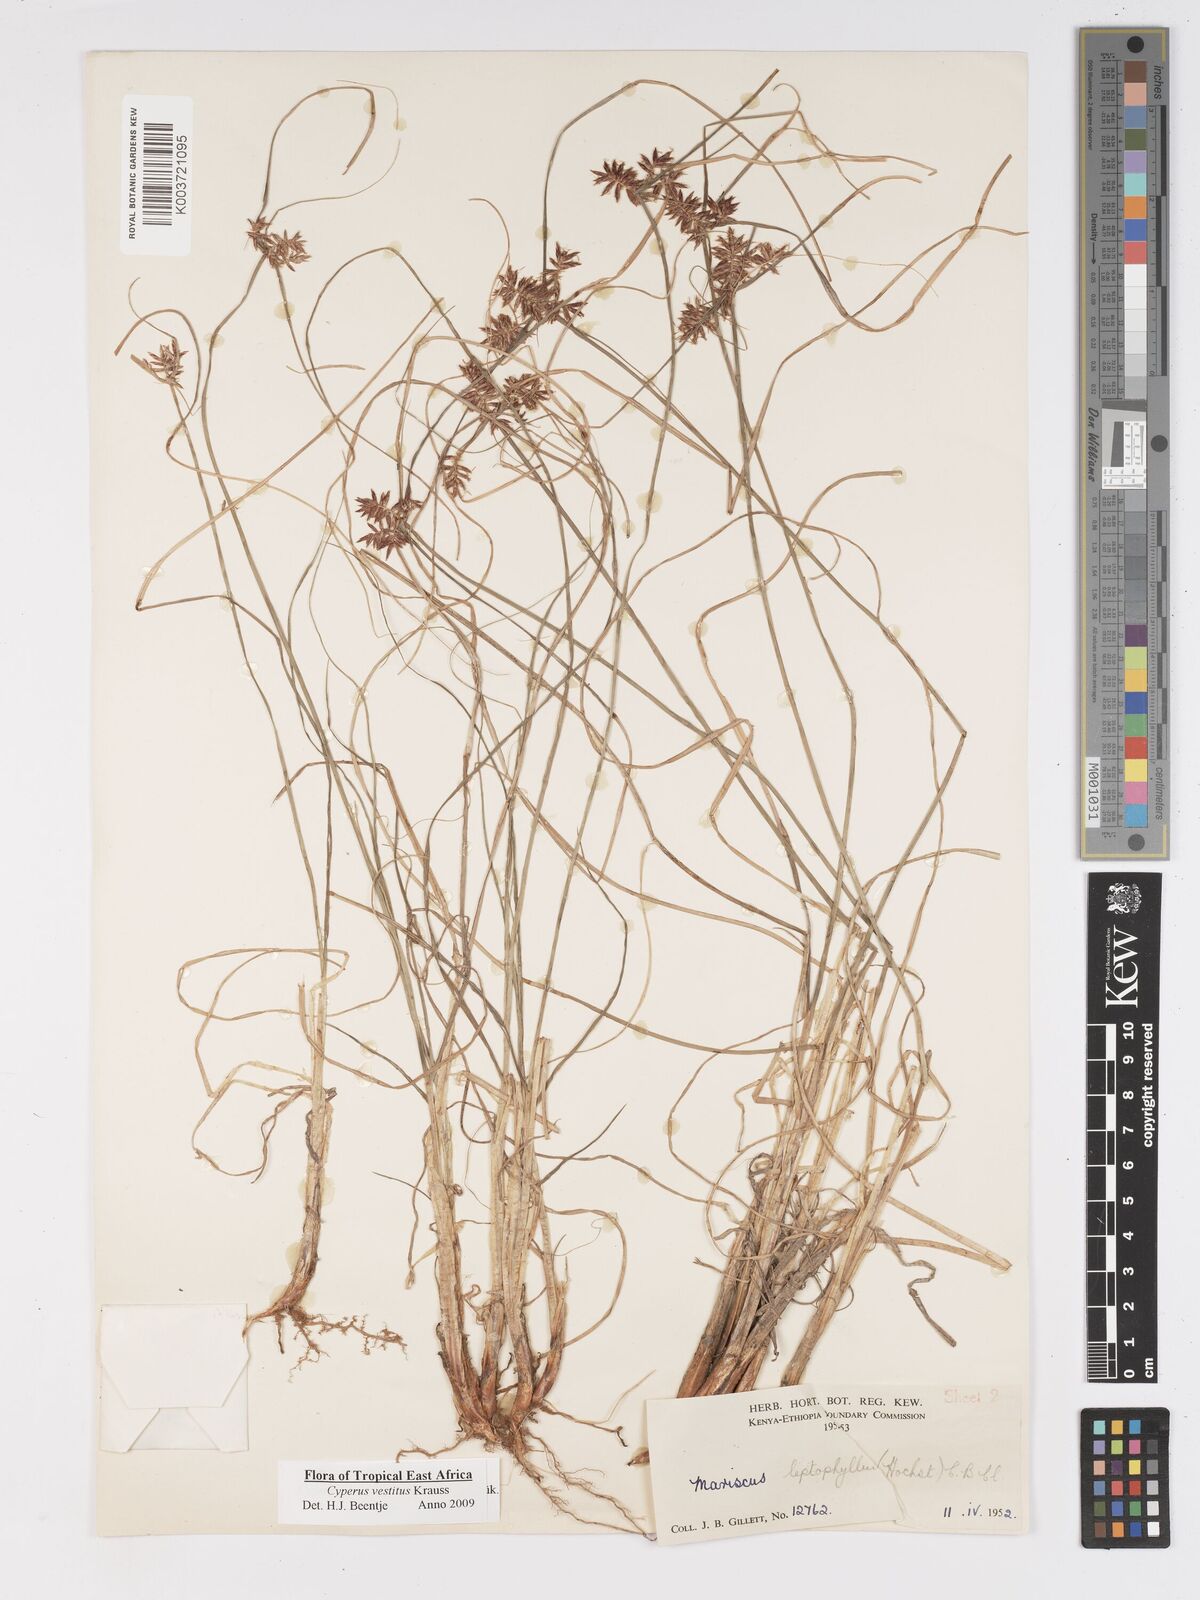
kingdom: Plantae
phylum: Tracheophyta
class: Liliopsida
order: Poales
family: Cyperaceae
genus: Cyperus
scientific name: Cyperus vestitus
